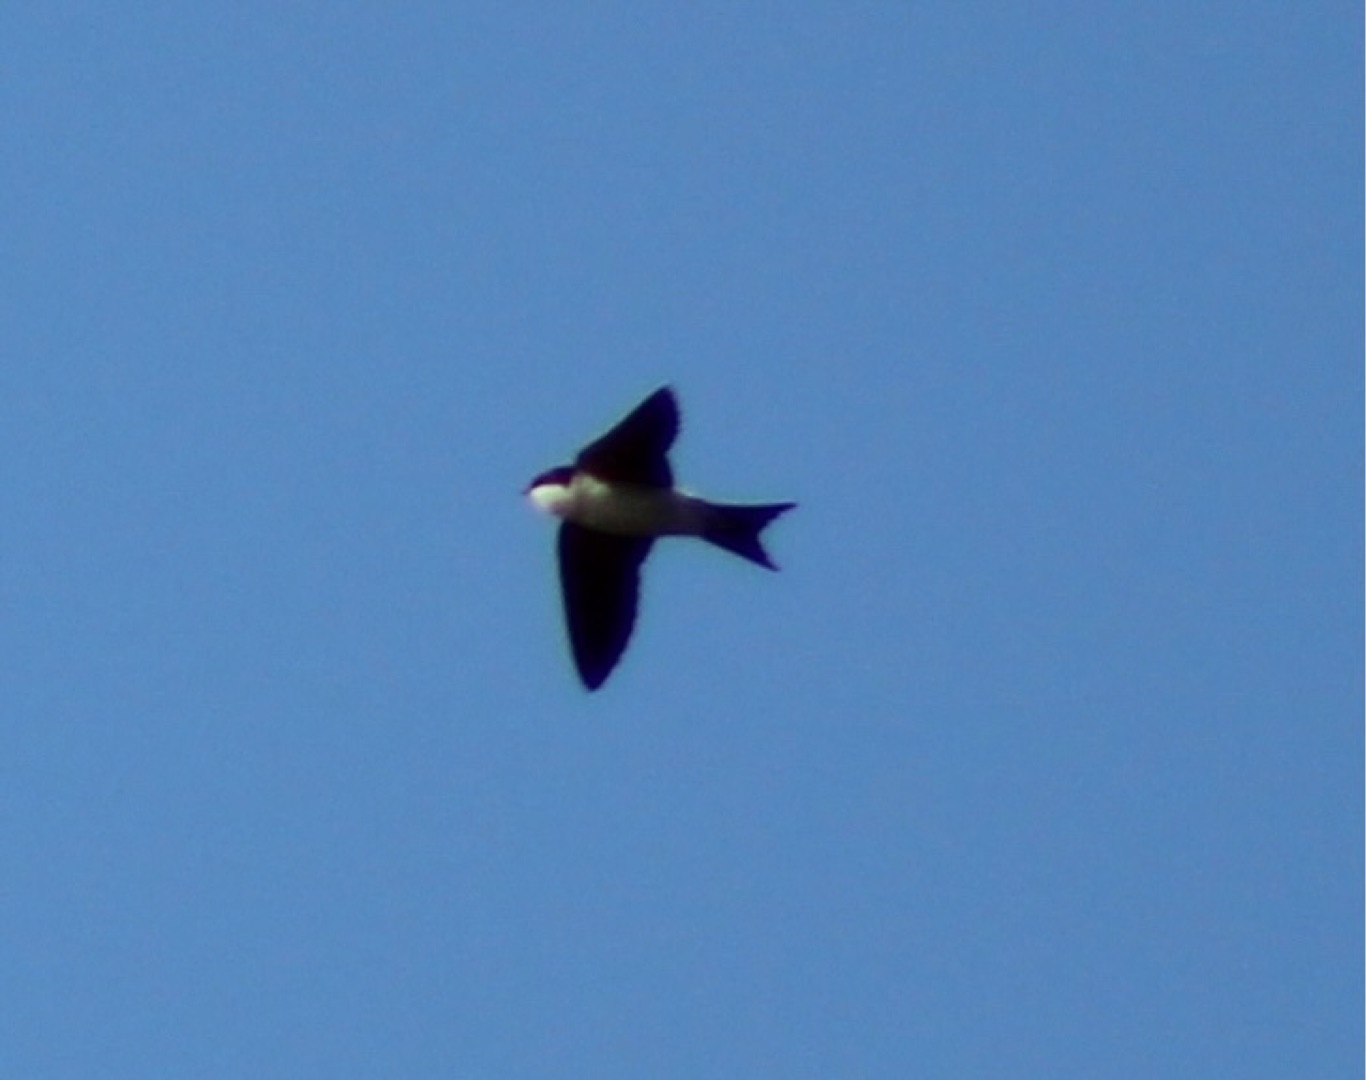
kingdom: Animalia
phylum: Chordata
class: Aves
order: Passeriformes
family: Hirundinidae
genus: Delichon
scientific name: Delichon urbicum
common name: Bysvale
